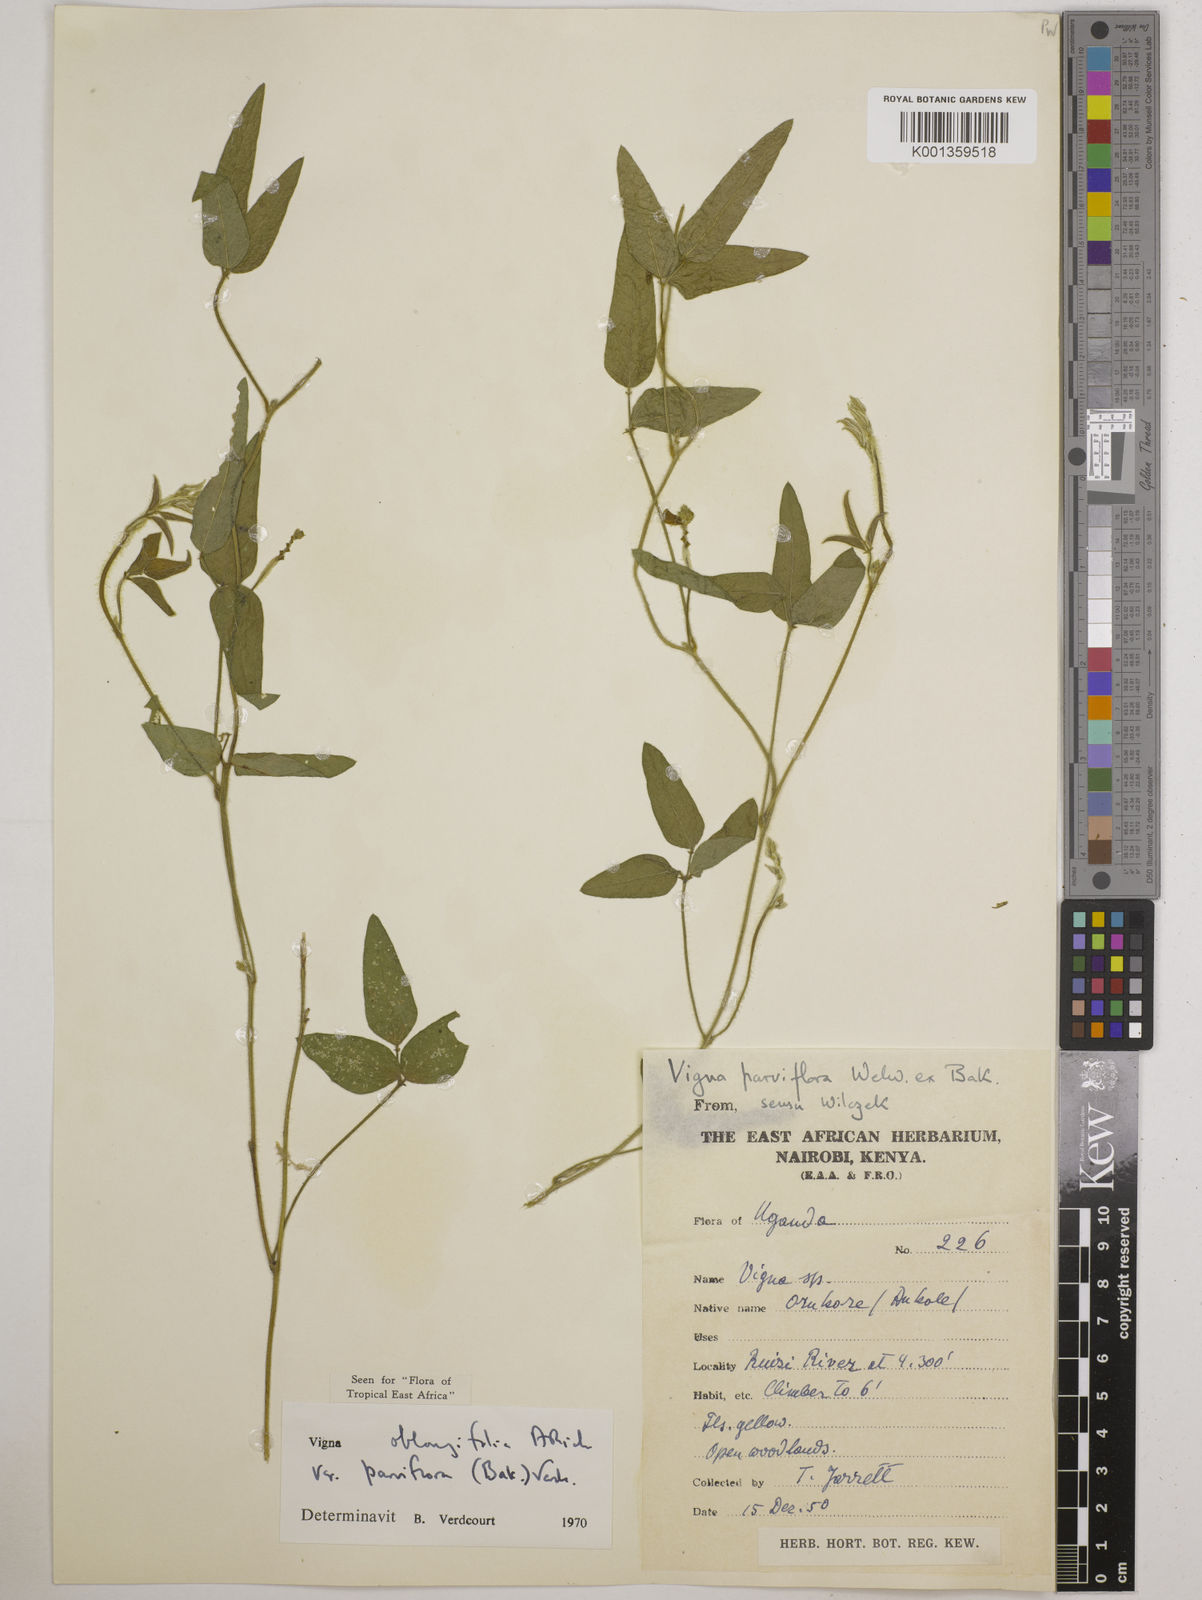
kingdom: Plantae
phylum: Tracheophyta
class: Magnoliopsida
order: Fabales
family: Fabaceae
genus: Vigna
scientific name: Vigna
